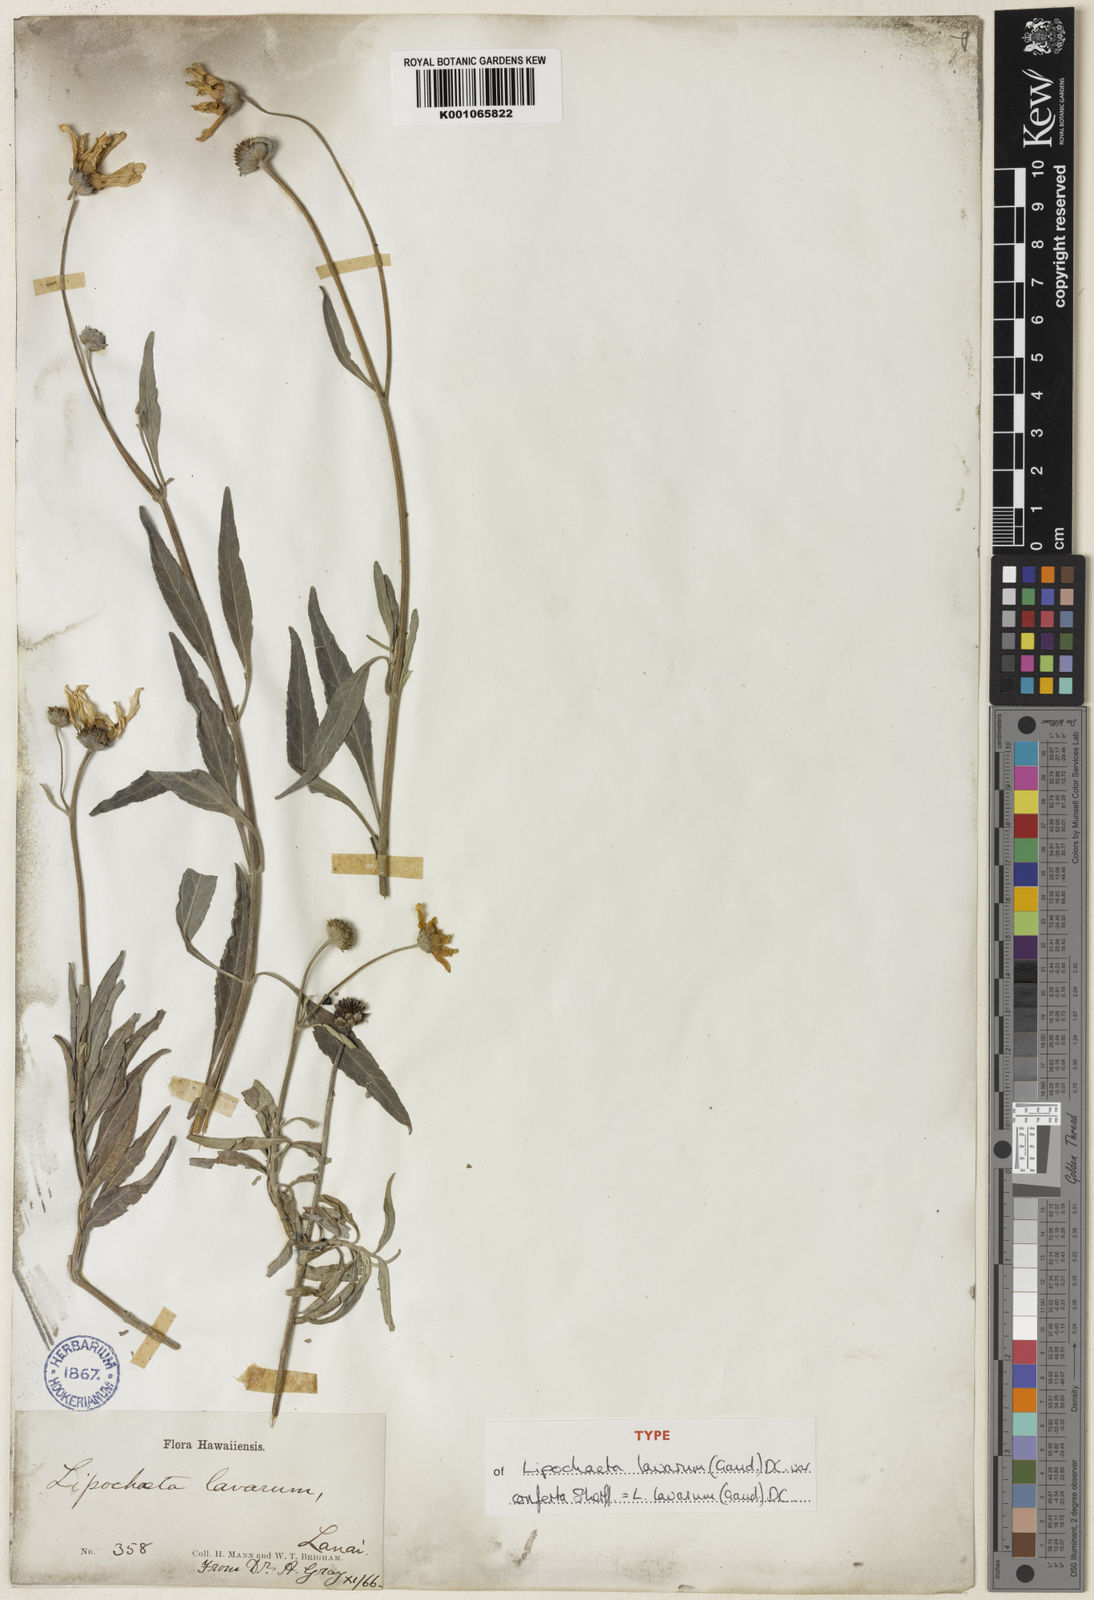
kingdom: Plantae
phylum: Tracheophyta
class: Magnoliopsida
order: Asterales
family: Asteraceae
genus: Lipochaeta
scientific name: Lipochaeta lavarum
